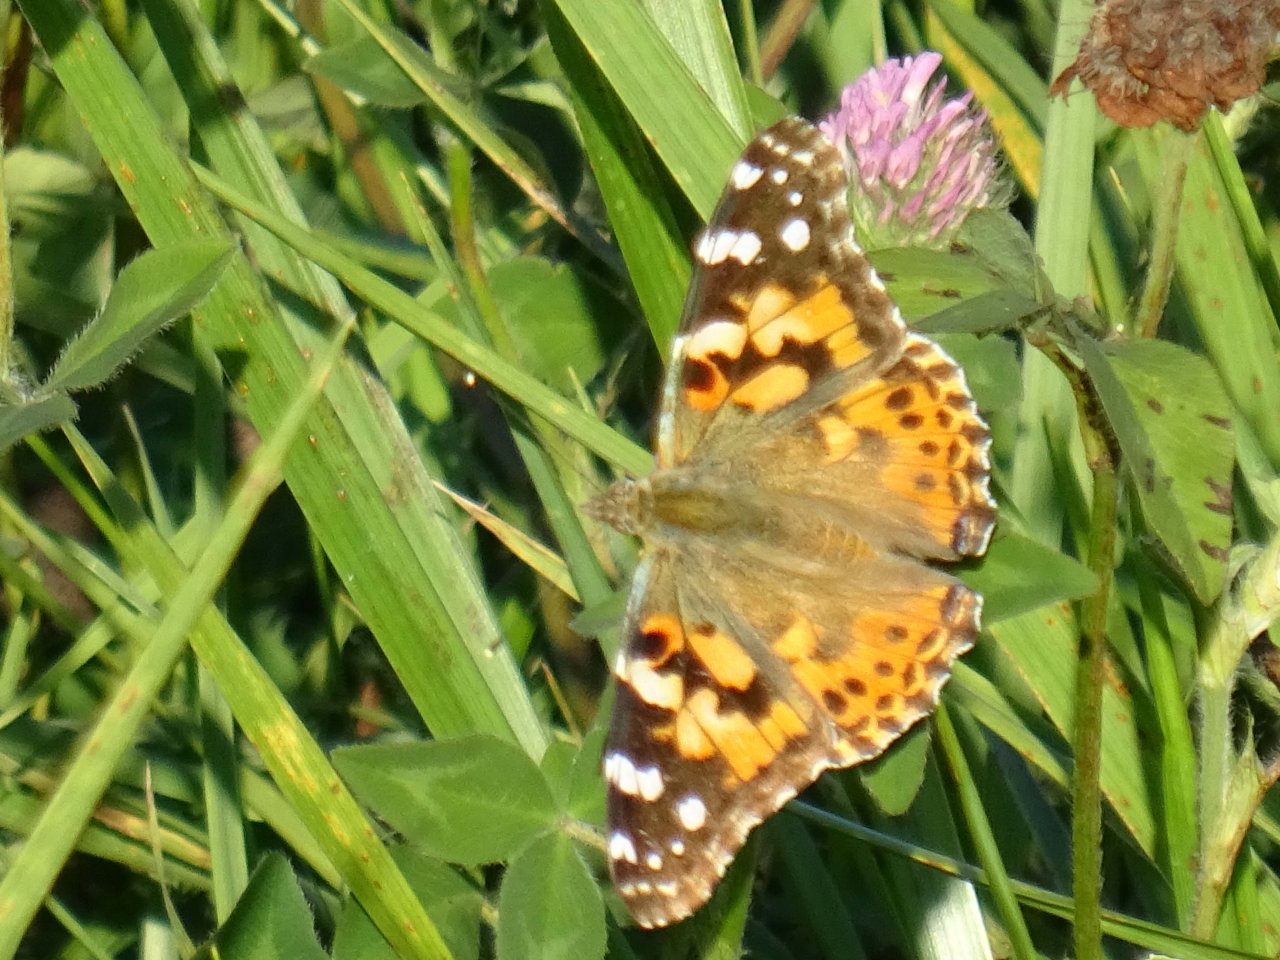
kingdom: Animalia
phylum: Arthropoda
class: Insecta
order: Lepidoptera
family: Nymphalidae
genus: Vanessa
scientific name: Vanessa cardui
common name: Painted Lady
